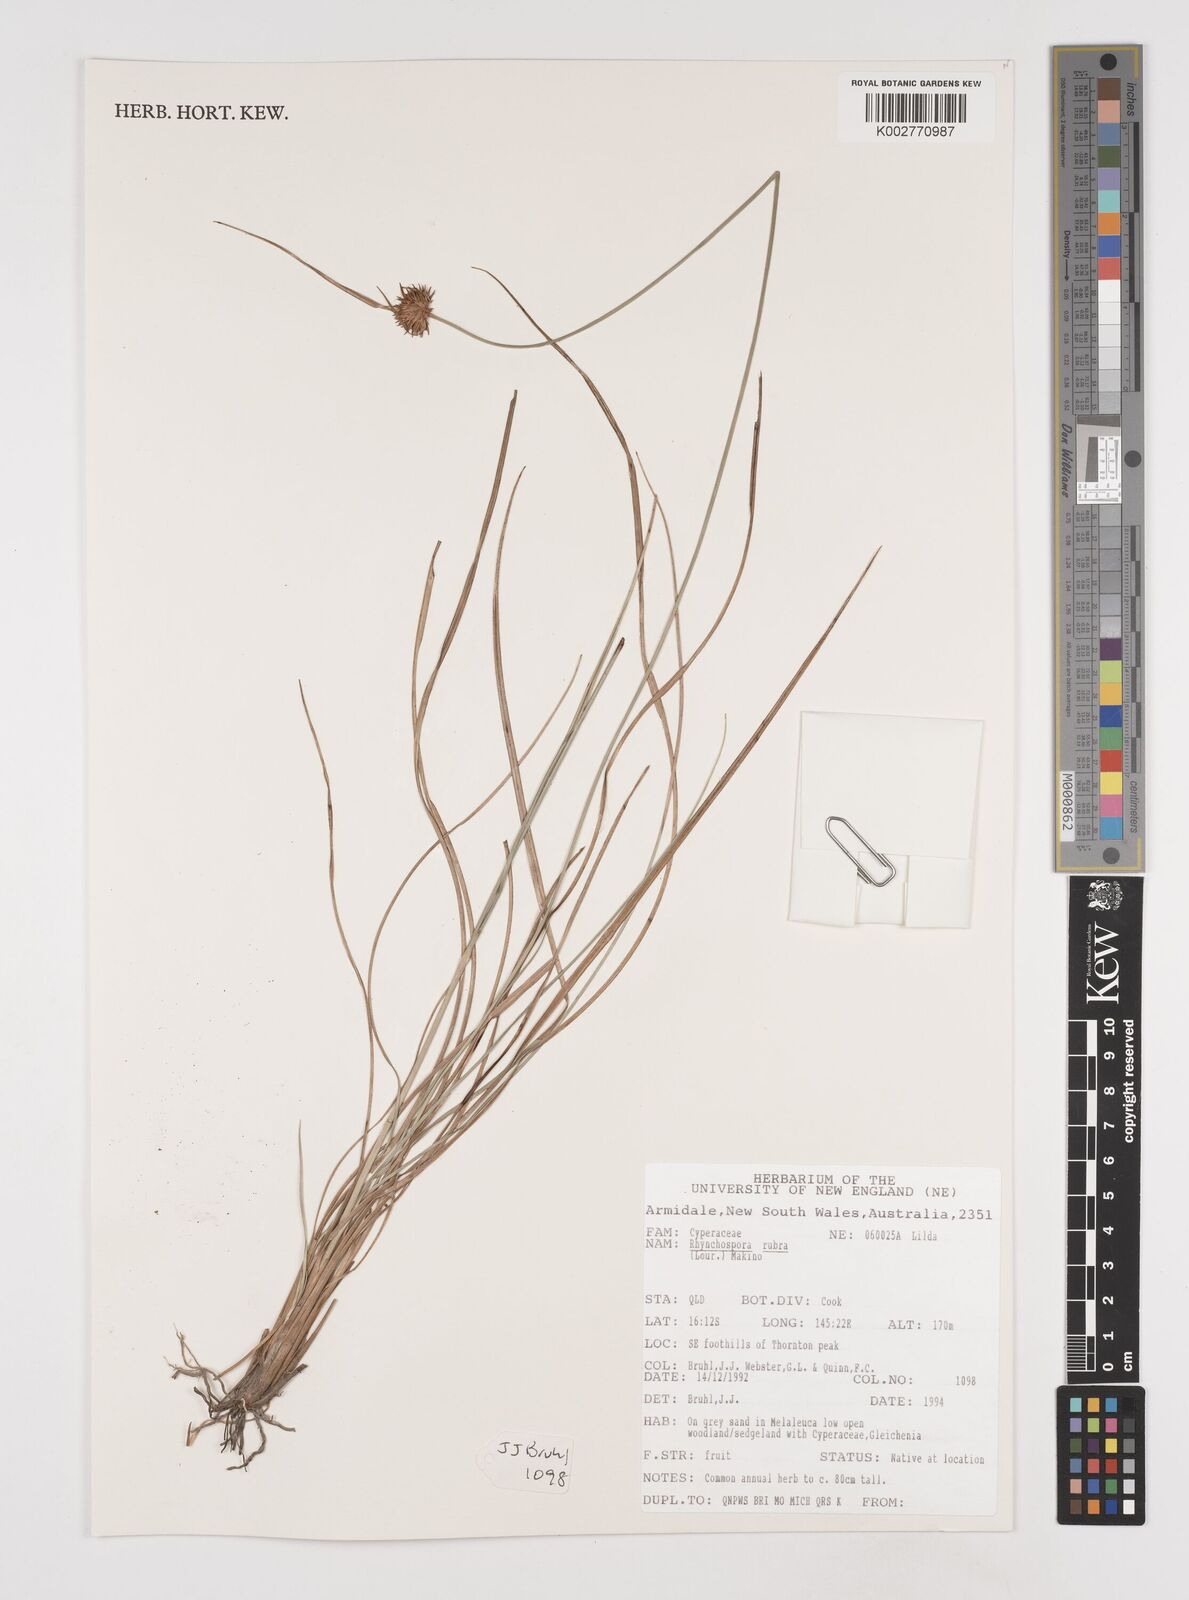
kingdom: Plantae
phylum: Tracheophyta
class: Liliopsida
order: Poales
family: Cyperaceae
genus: Rhynchospora
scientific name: Rhynchospora rubra
